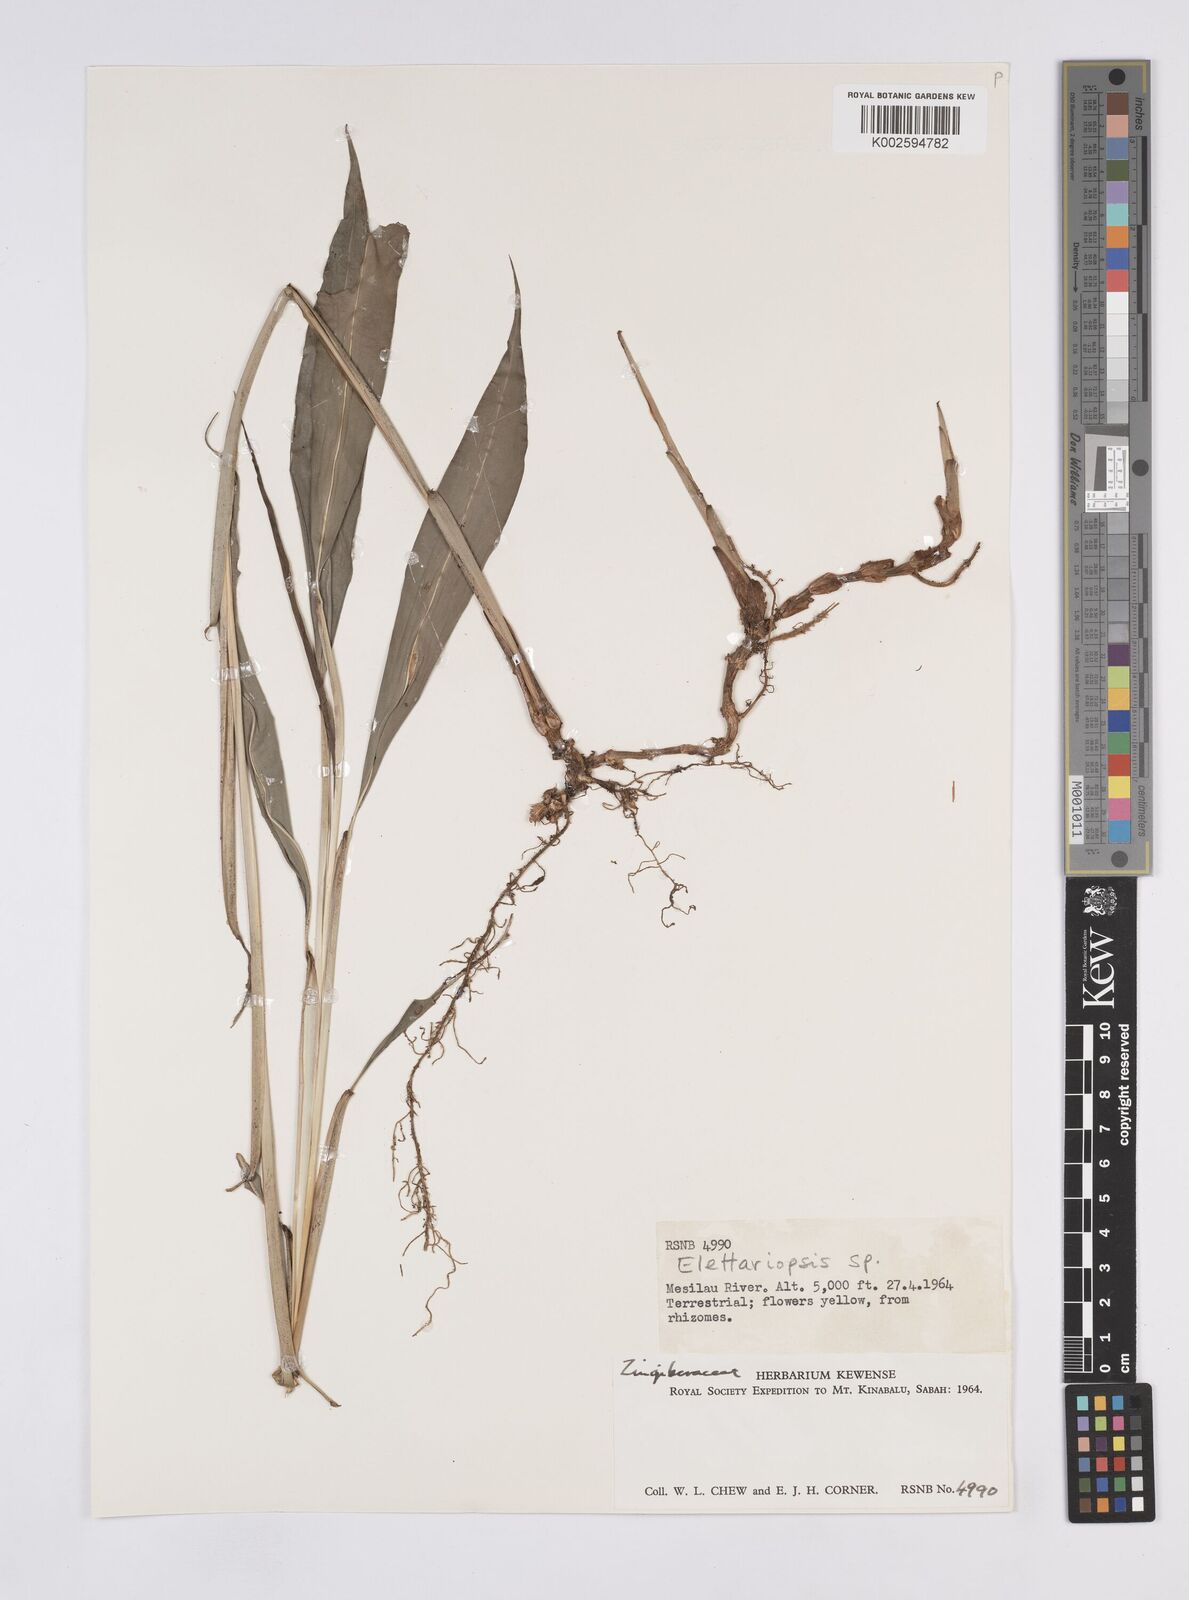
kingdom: Plantae
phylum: Tracheophyta
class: Liliopsida
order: Zingiberales
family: Zingiberaceae
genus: Amomum
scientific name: Amomum
